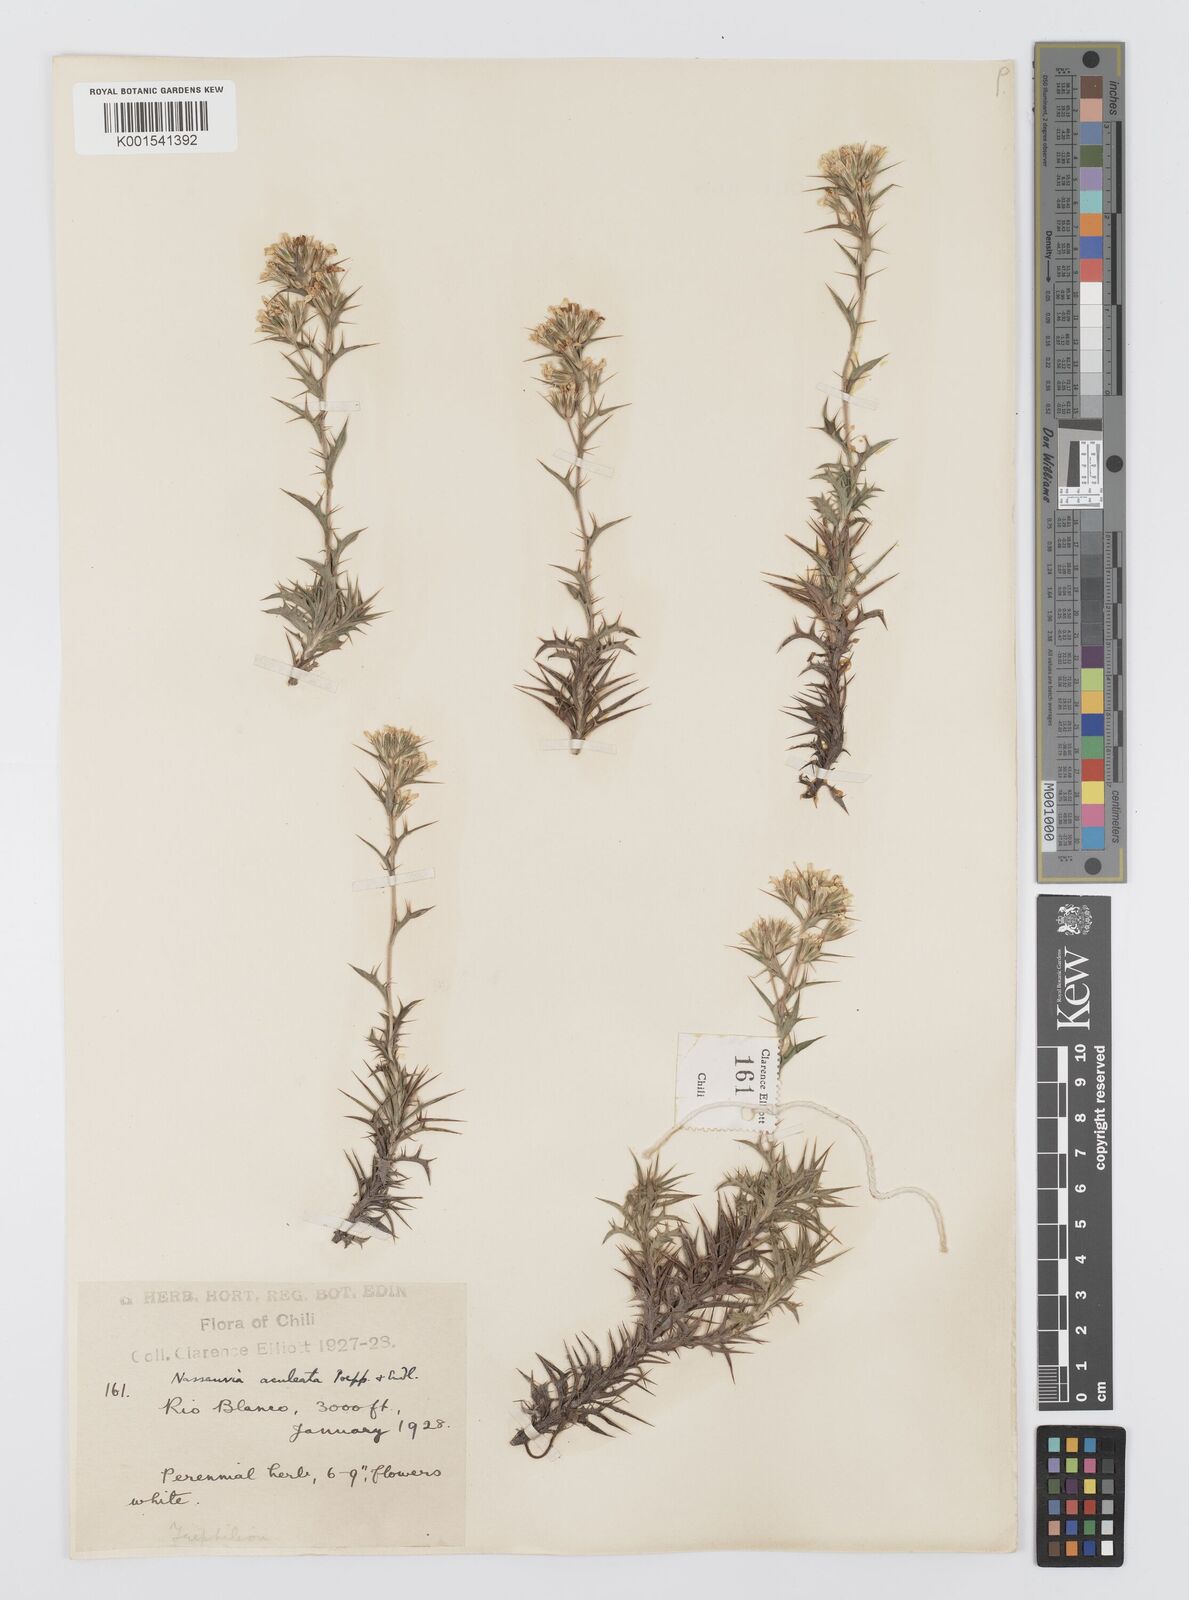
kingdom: Plantae
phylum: Tracheophyta
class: Magnoliopsida
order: Asterales
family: Asteraceae
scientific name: Asteraceae
